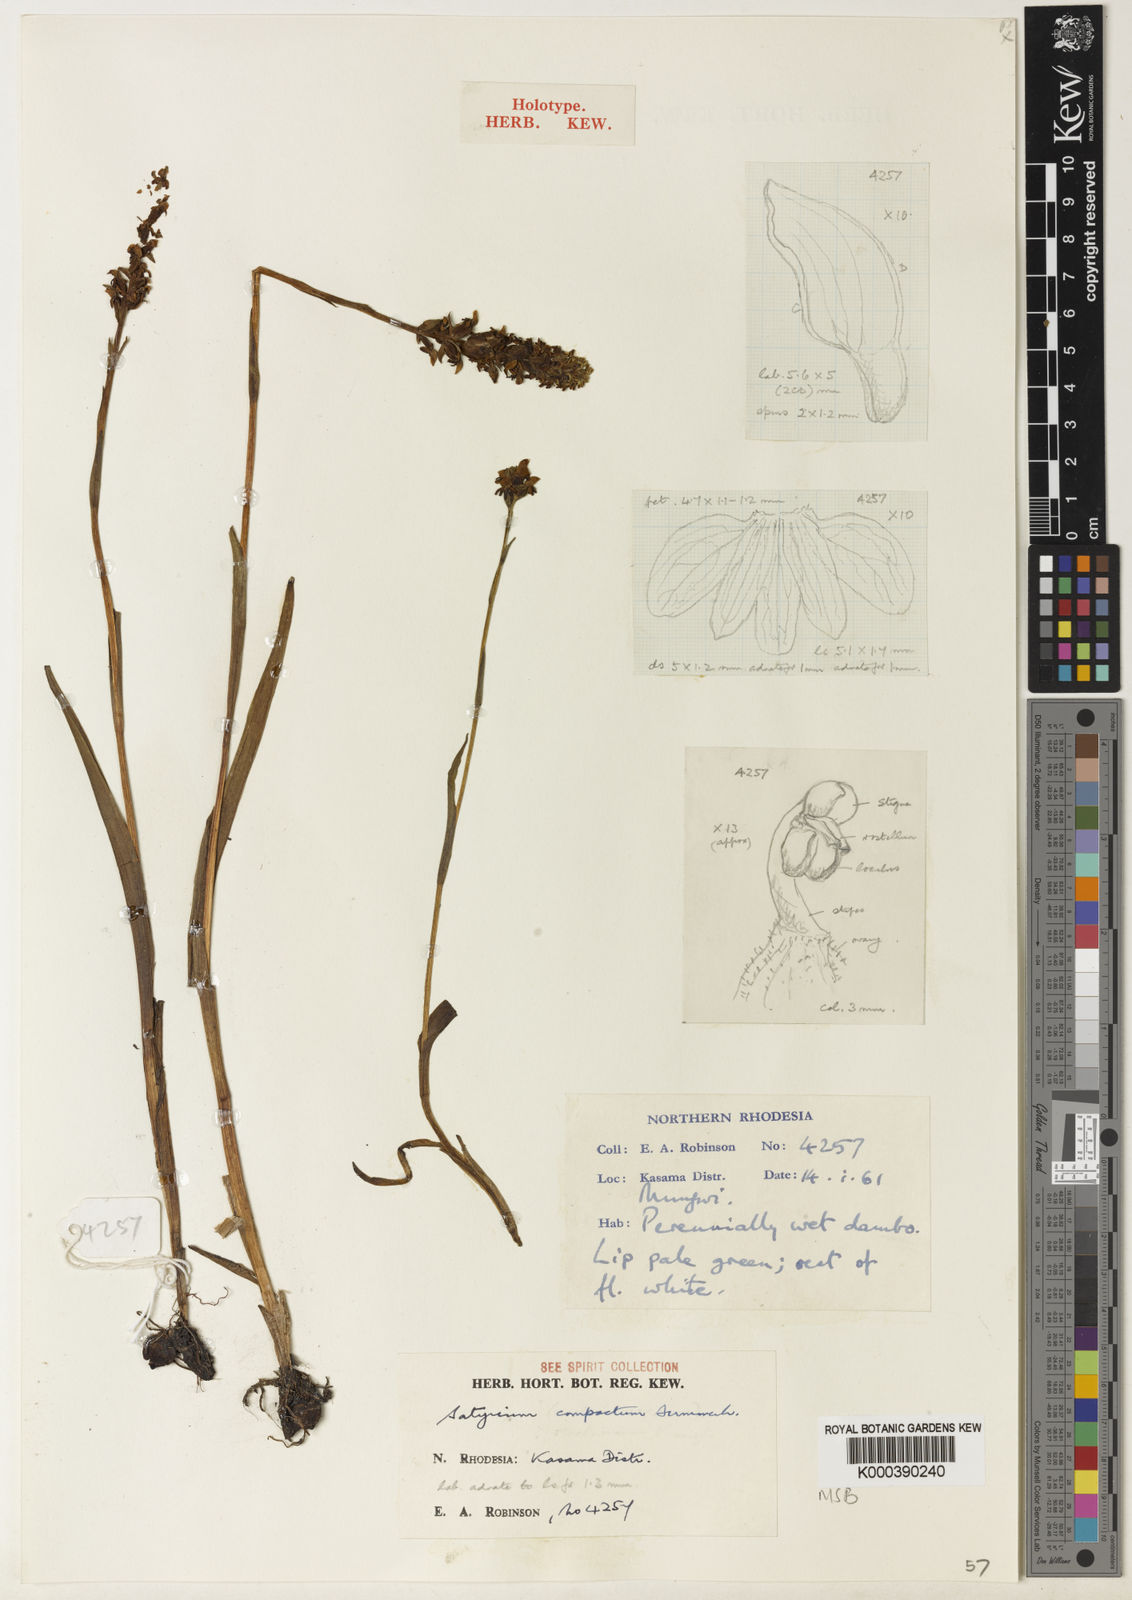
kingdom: Plantae
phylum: Tracheophyta
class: Liliopsida
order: Asparagales
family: Orchidaceae
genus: Satyrium
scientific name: Satyrium compactum
